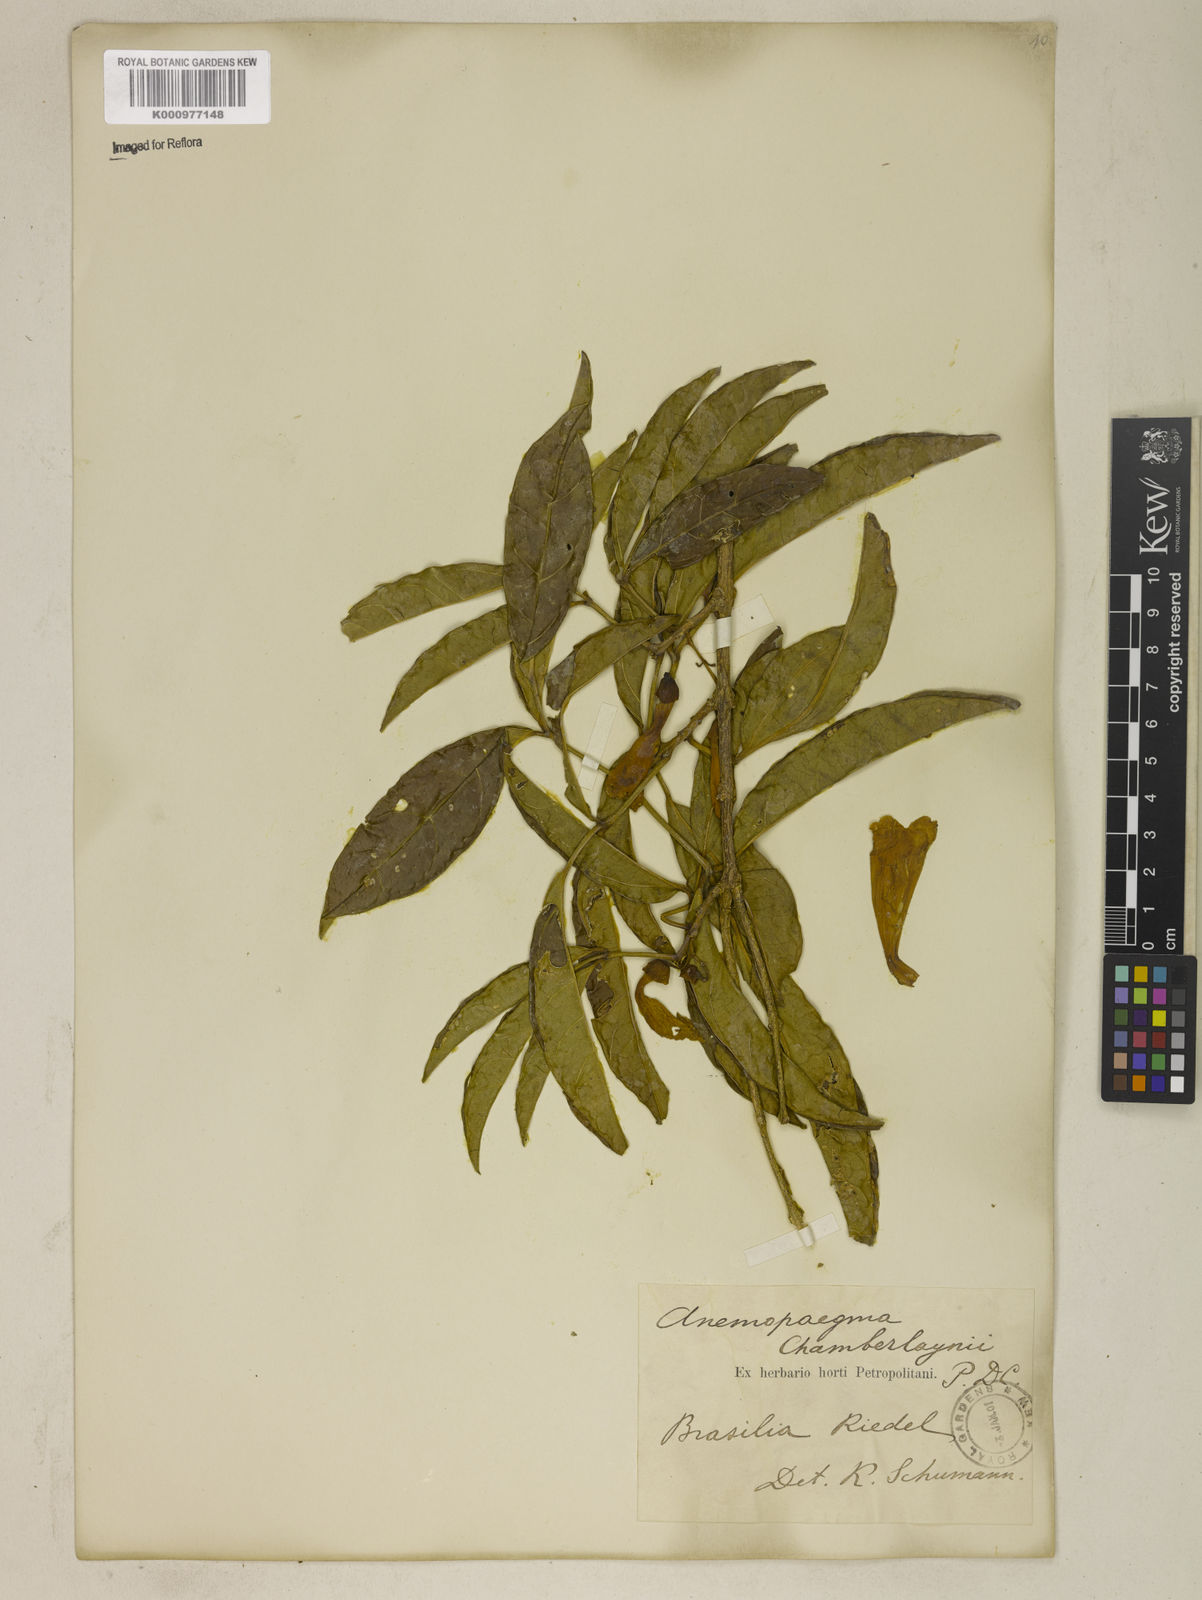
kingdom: Plantae
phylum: Tracheophyta
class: Magnoliopsida
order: Lamiales
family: Bignoniaceae
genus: Anemopaegma
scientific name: Anemopaegma chamberlaynii
